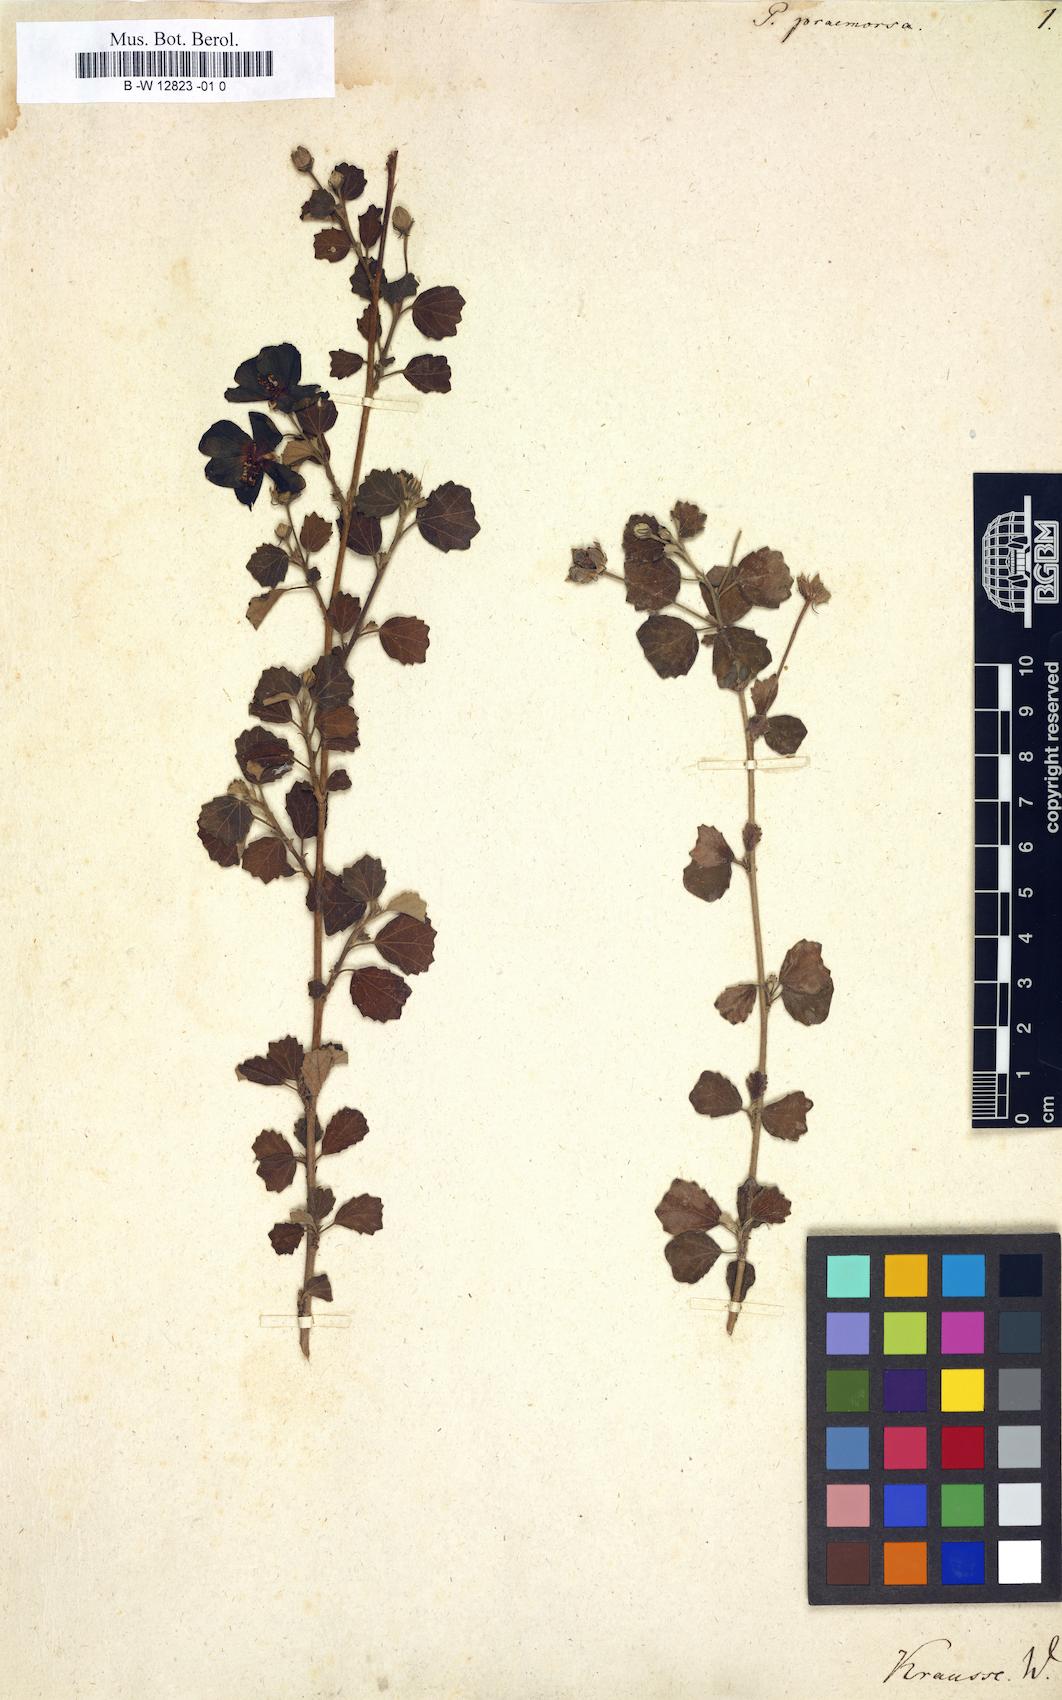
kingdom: Plantae
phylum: Tracheophyta
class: Magnoliopsida
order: Malvales
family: Malvaceae
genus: Pavonia
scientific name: Pavonia praemorsa
